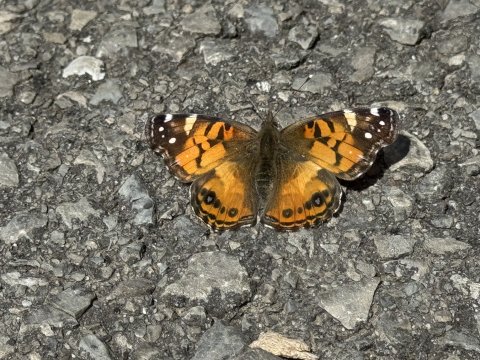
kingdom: Animalia
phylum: Arthropoda
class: Insecta
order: Lepidoptera
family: Nymphalidae
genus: Vanessa
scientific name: Vanessa virginiensis
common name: American Lady
